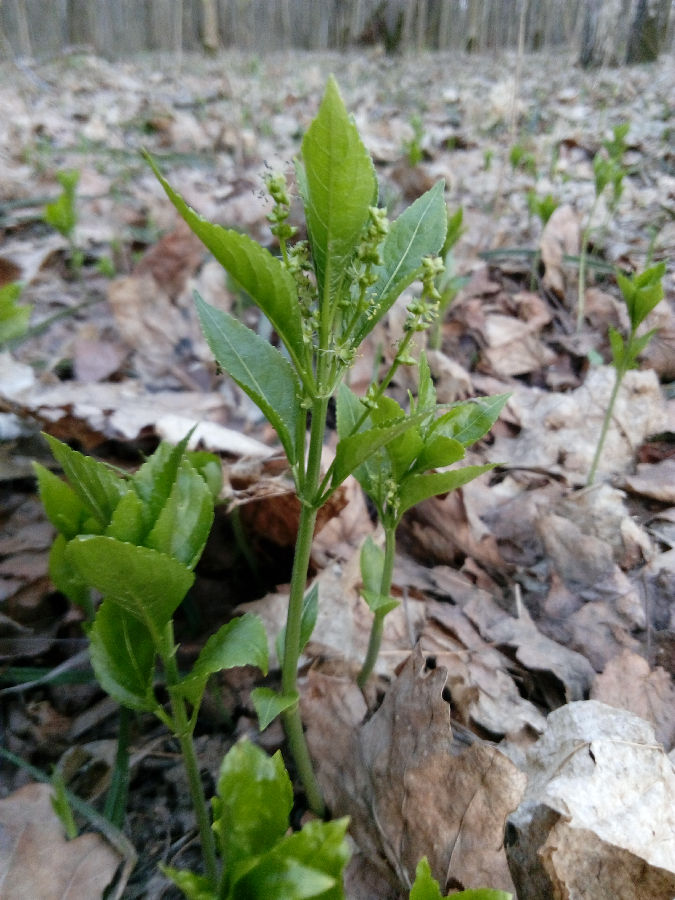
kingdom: Plantae
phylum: Tracheophyta
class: Magnoliopsida
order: Myrtales
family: Onagraceae
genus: Circaea
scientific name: Circaea lutetiana
